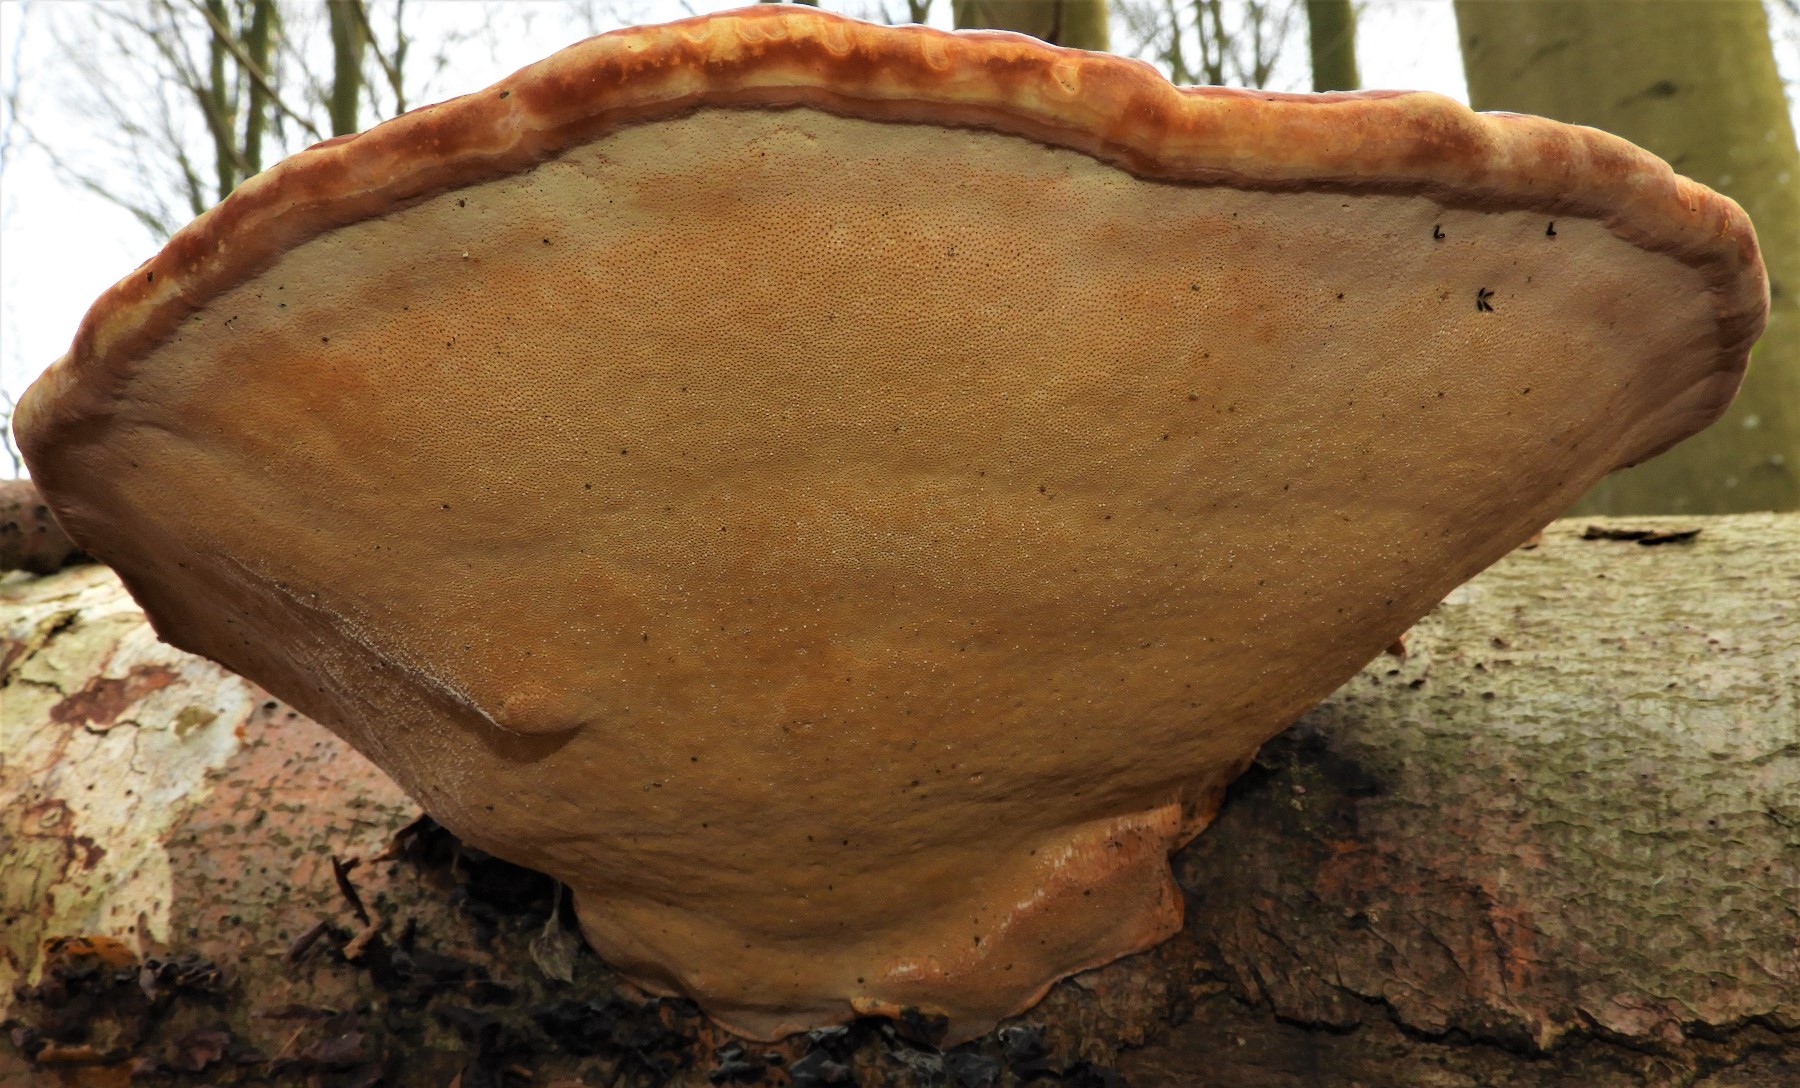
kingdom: Fungi
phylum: Basidiomycota
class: Agaricomycetes
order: Polyporales
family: Fomitopsidaceae
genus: Fomitopsis
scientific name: Fomitopsis pinicola
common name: randbæltet hovporesvamp
